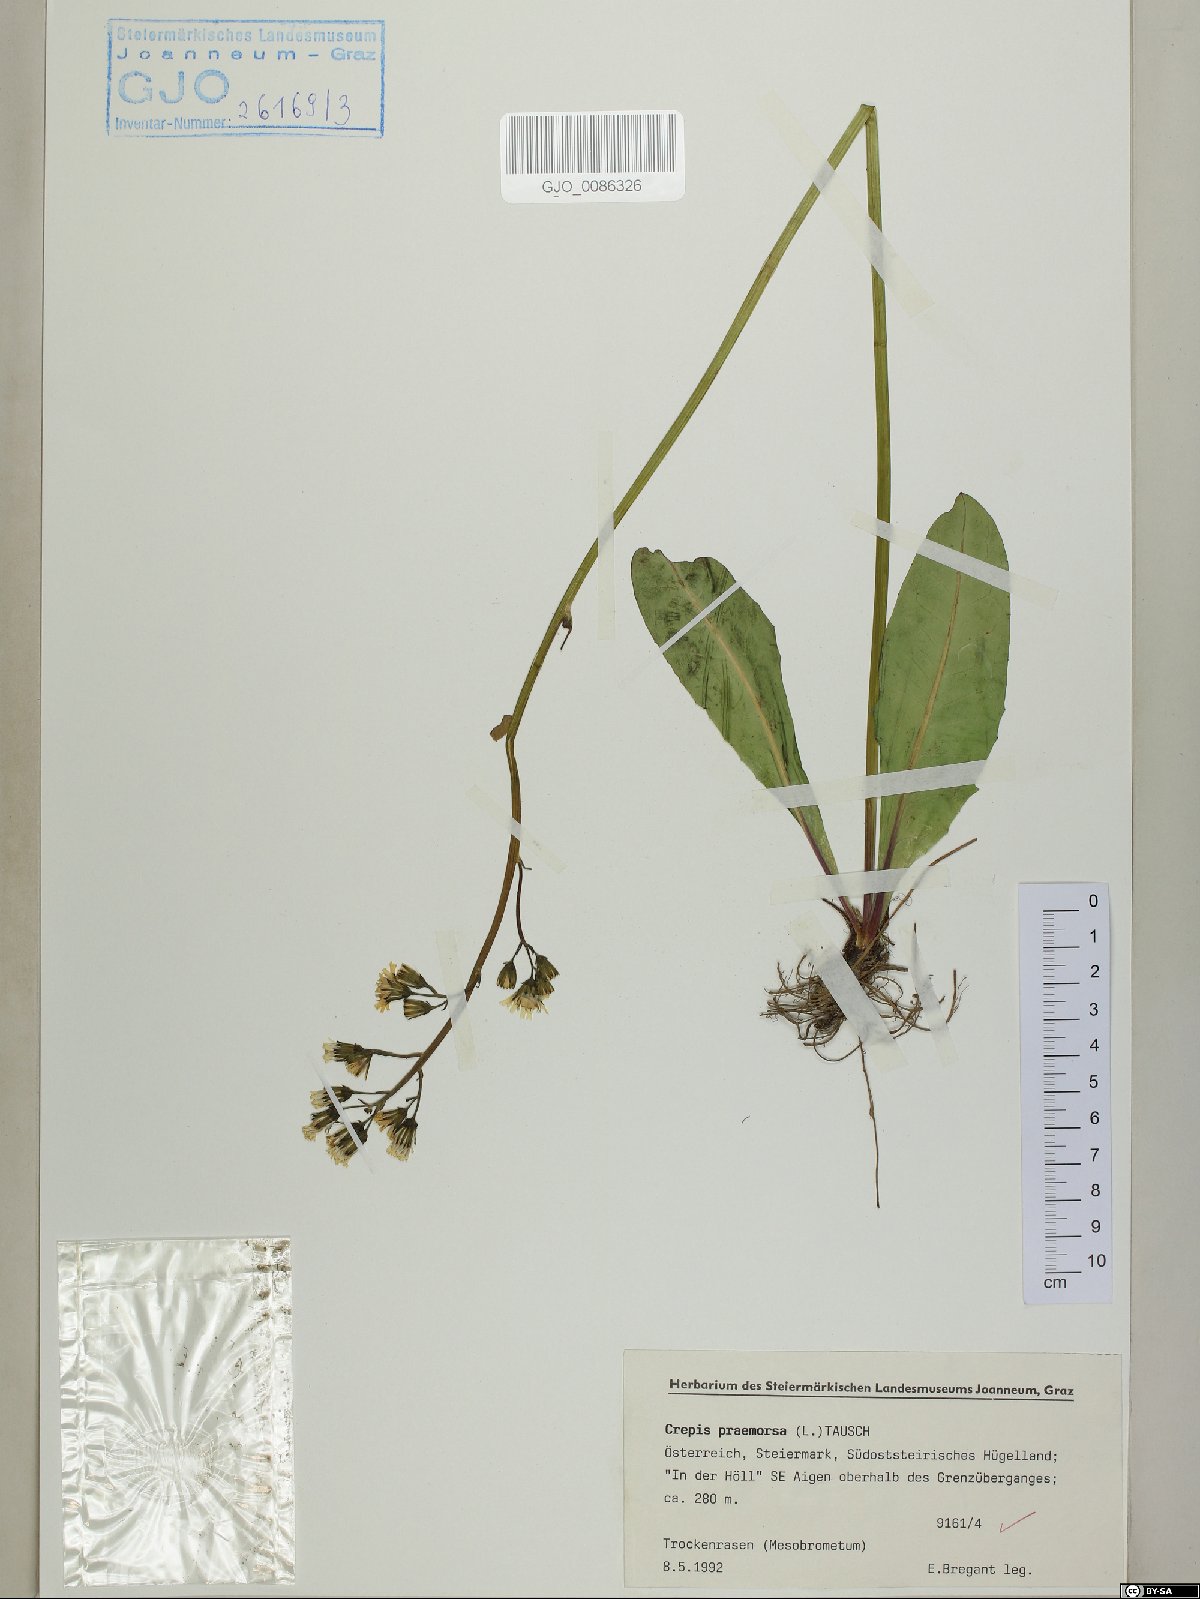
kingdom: Plantae
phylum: Tracheophyta
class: Magnoliopsida
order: Asterales
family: Asteraceae
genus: Crepis
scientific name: Crepis praemorsa
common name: Leafless hawk's-beard
